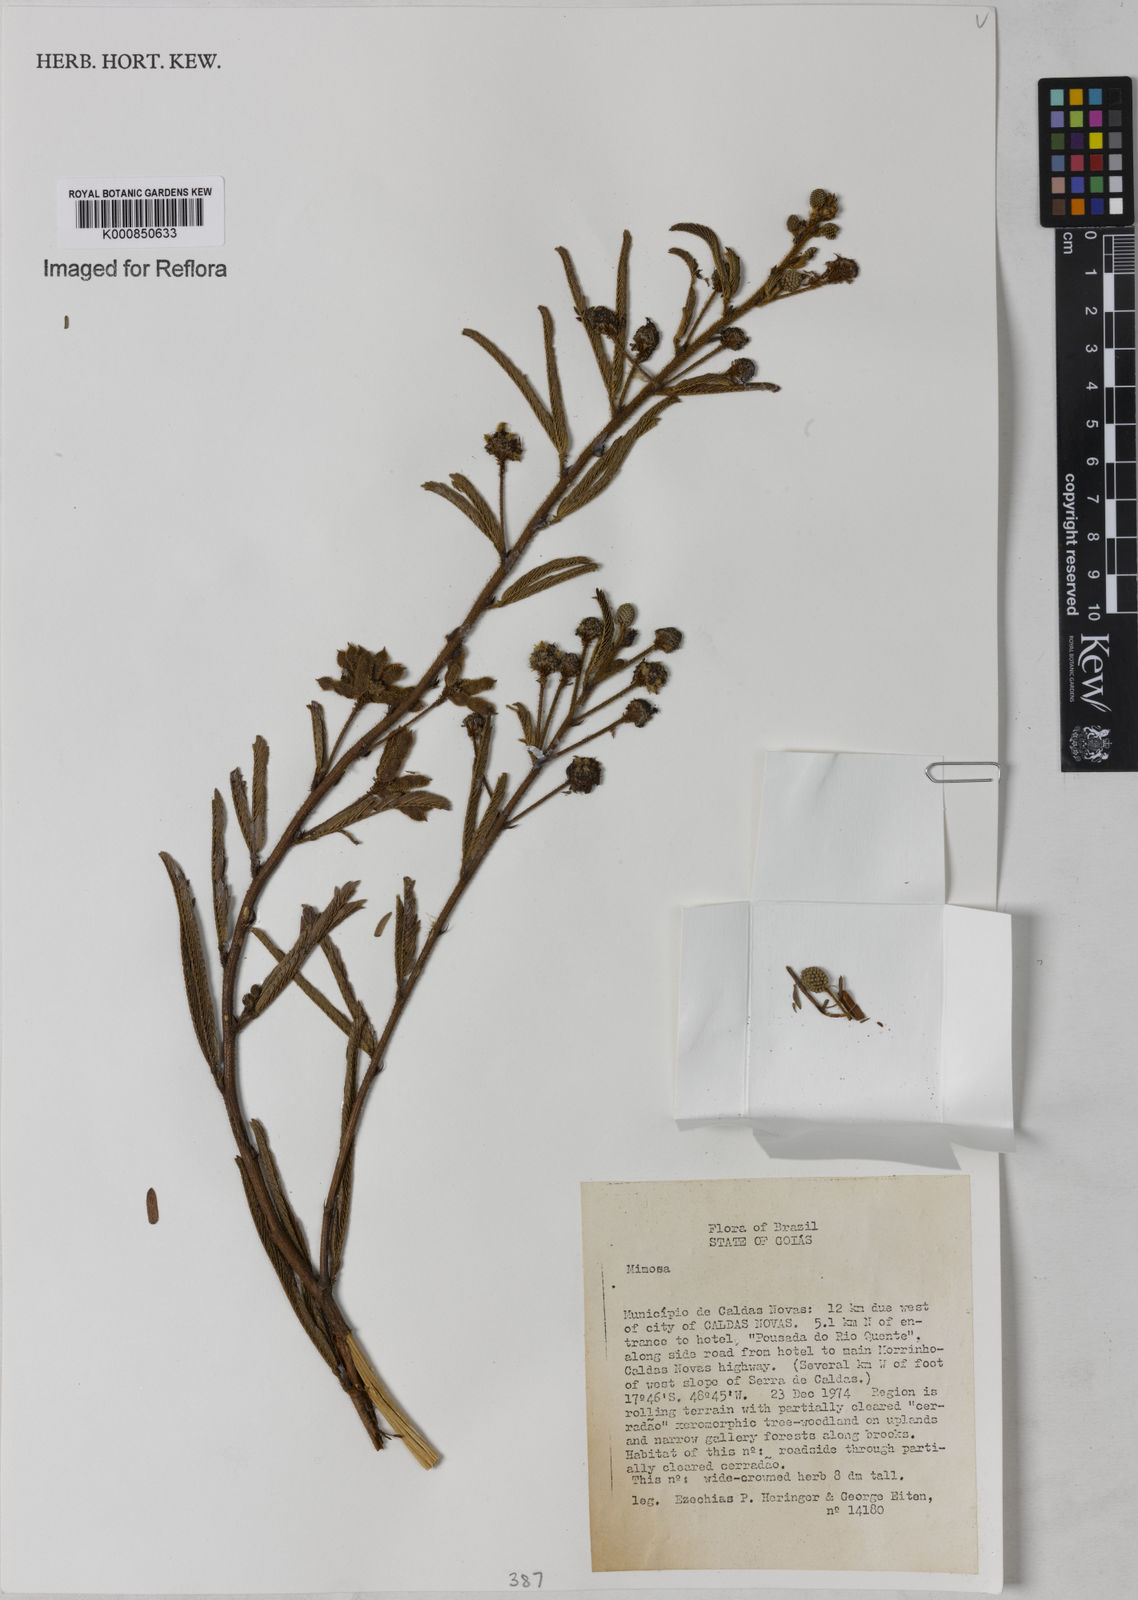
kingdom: Plantae
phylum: Tracheophyta
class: Magnoliopsida
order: Fabales
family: Fabaceae
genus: Mimosa
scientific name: Mimosa
